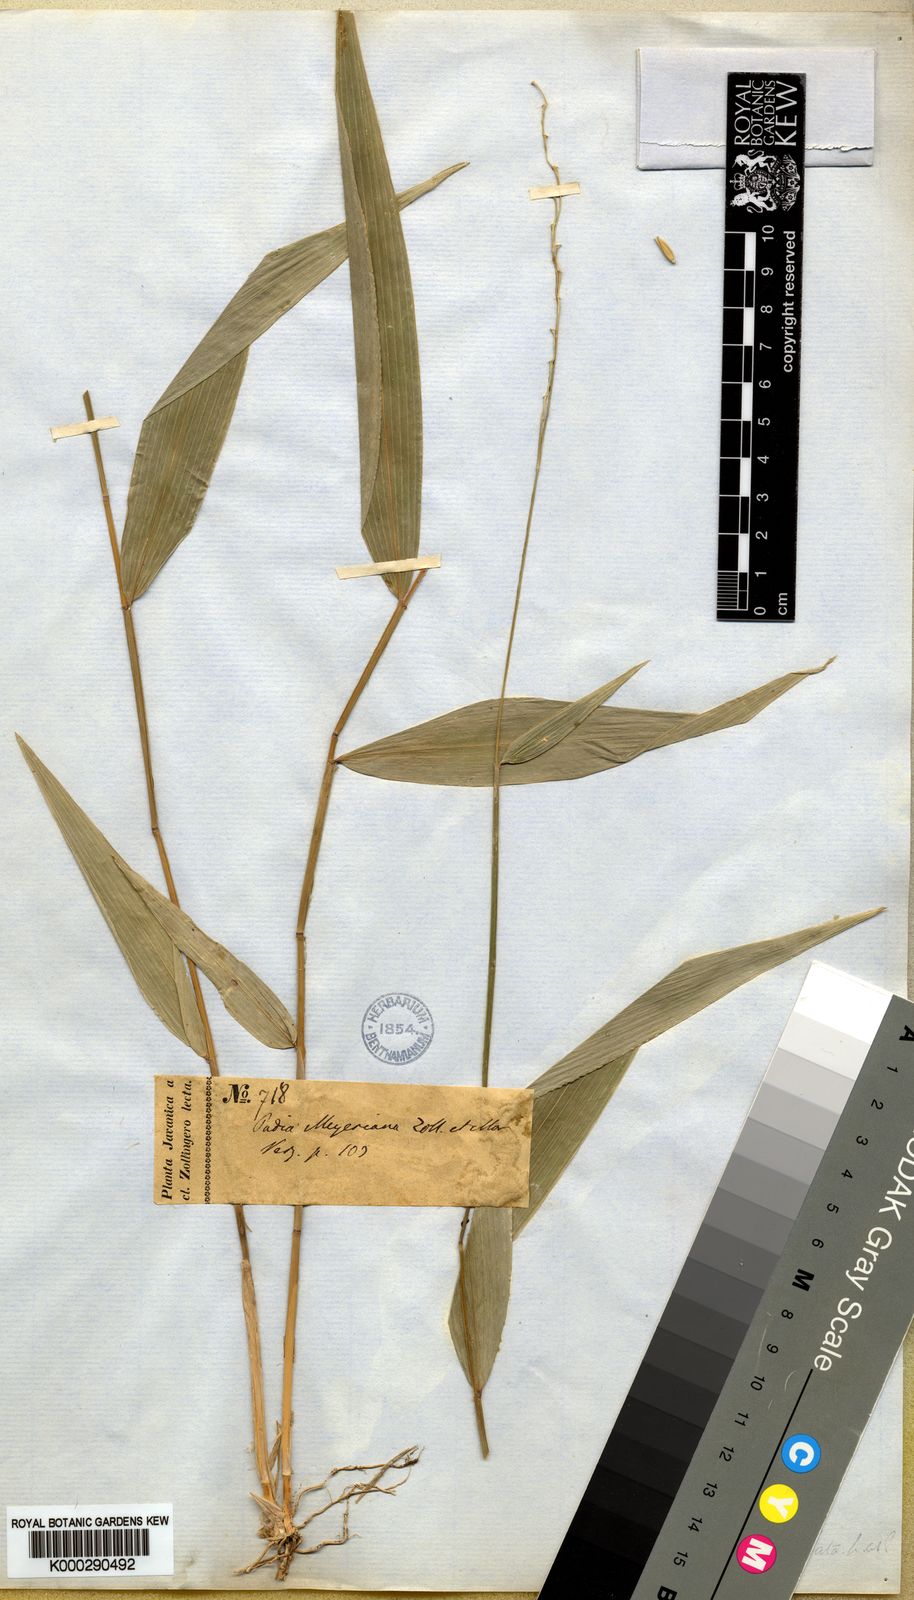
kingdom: Plantae
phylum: Tracheophyta
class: Liliopsida
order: Poales
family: Poaceae
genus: Oryza
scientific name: Oryza meyeriana
